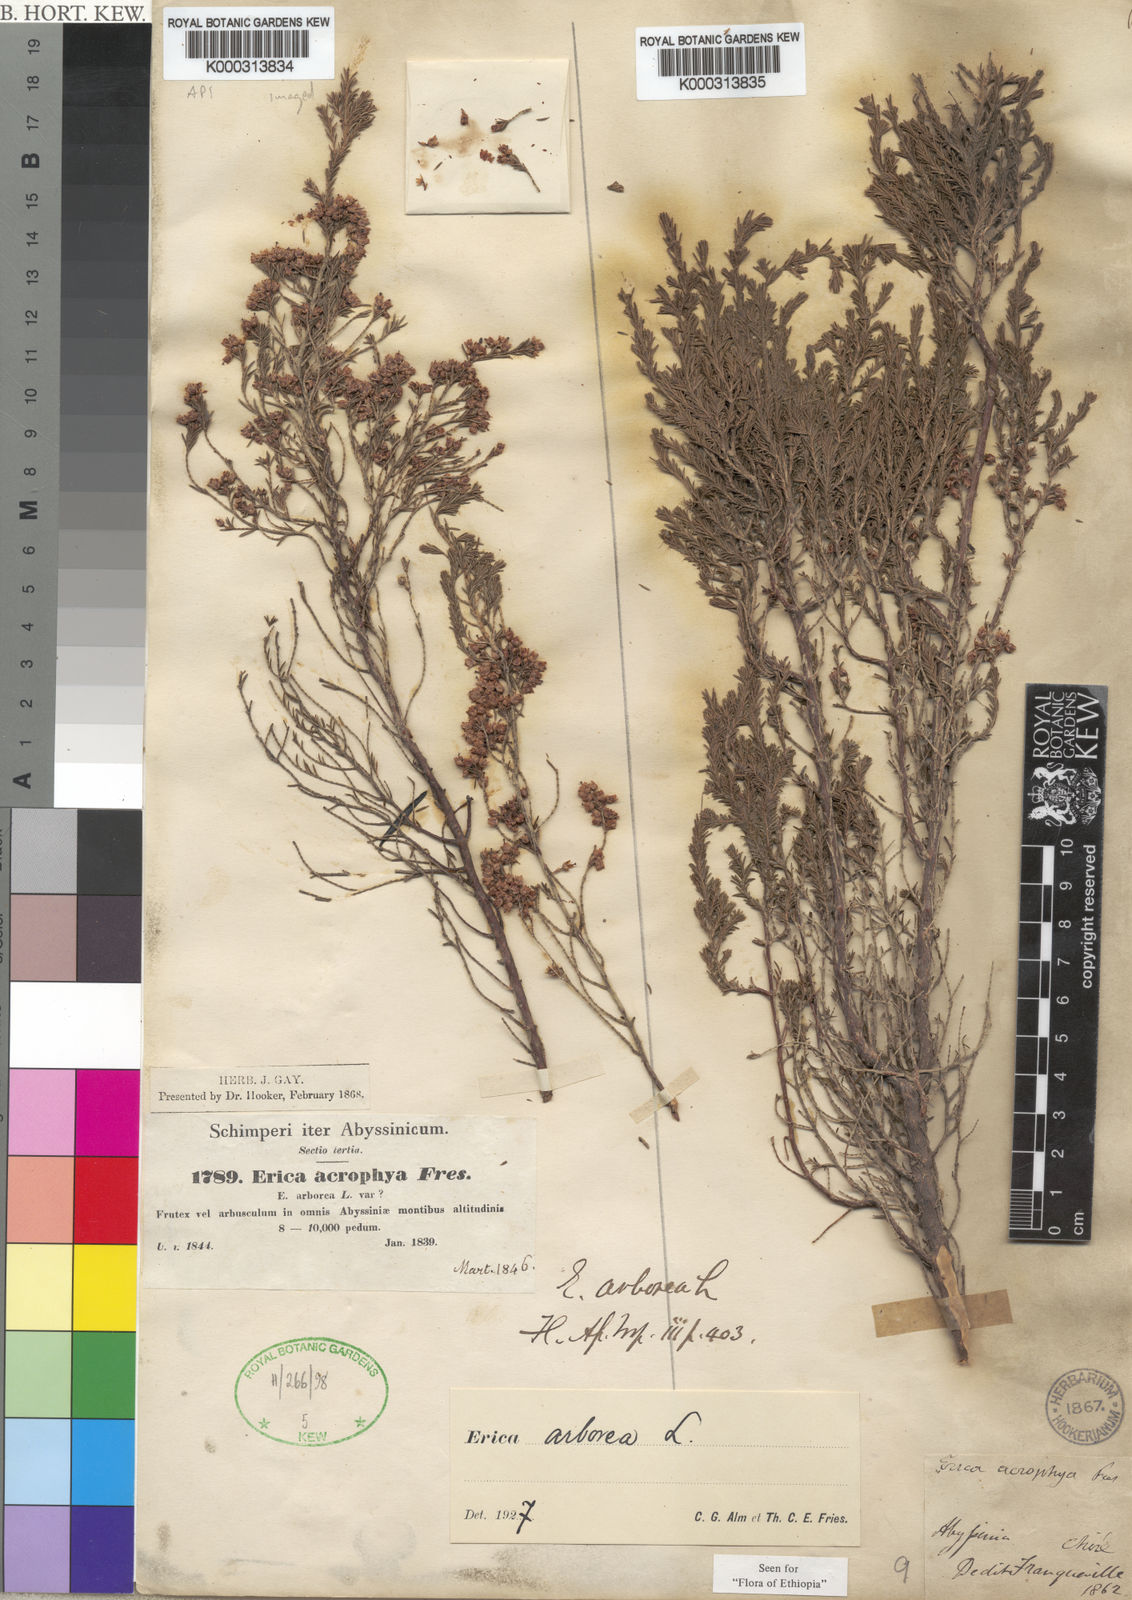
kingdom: Plantae
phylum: Tracheophyta
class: Magnoliopsida
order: Ericales
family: Ericaceae
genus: Erica
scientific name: Erica arborea
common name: Tree heath
